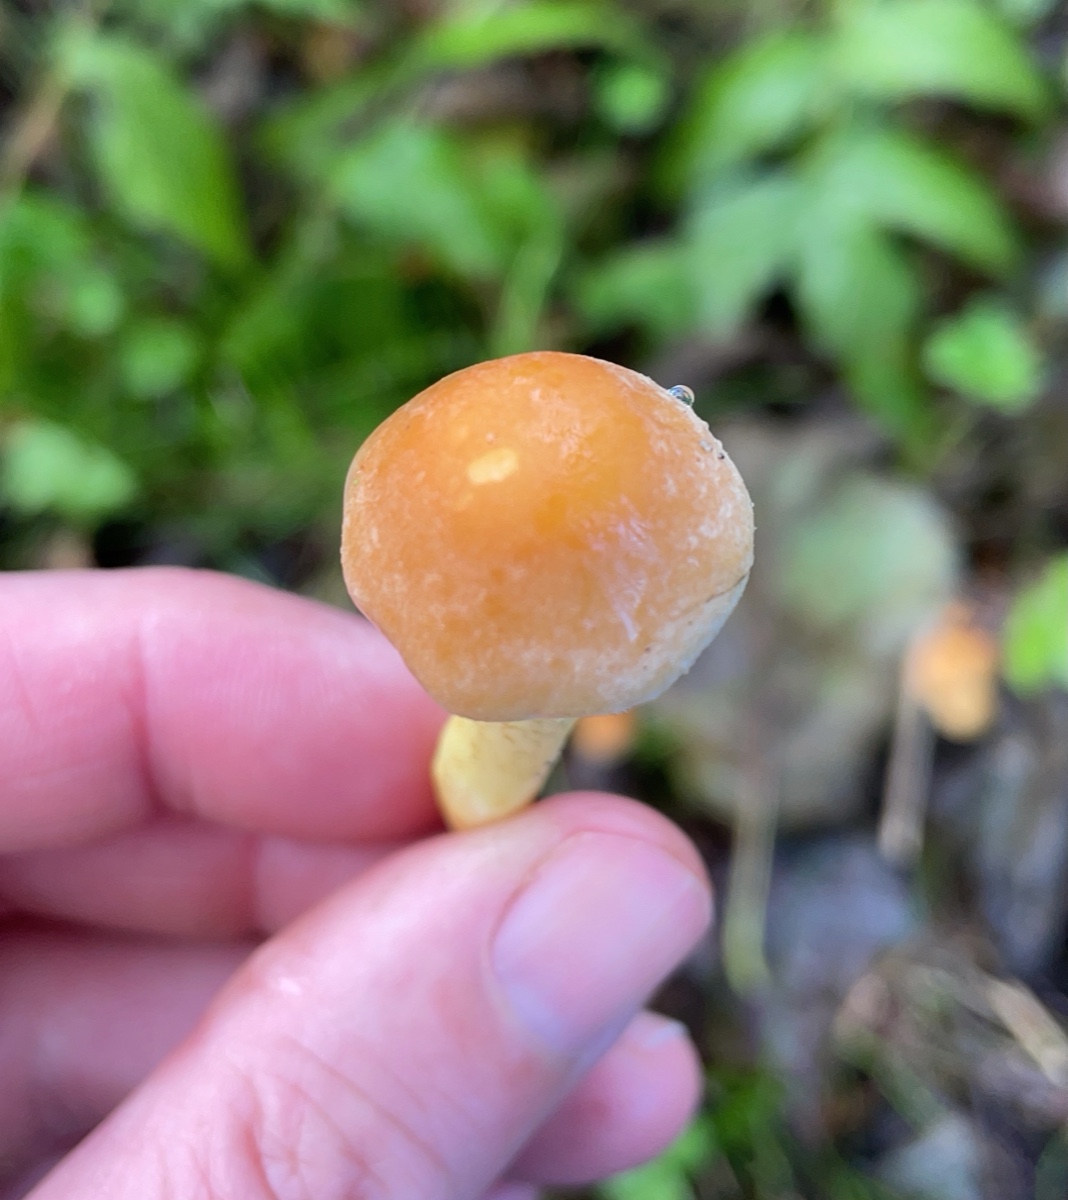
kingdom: Fungi
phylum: Basidiomycota
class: Agaricomycetes
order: Agaricales
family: Strophariaceae
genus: Hypholoma
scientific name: Hypholoma fasciculare
